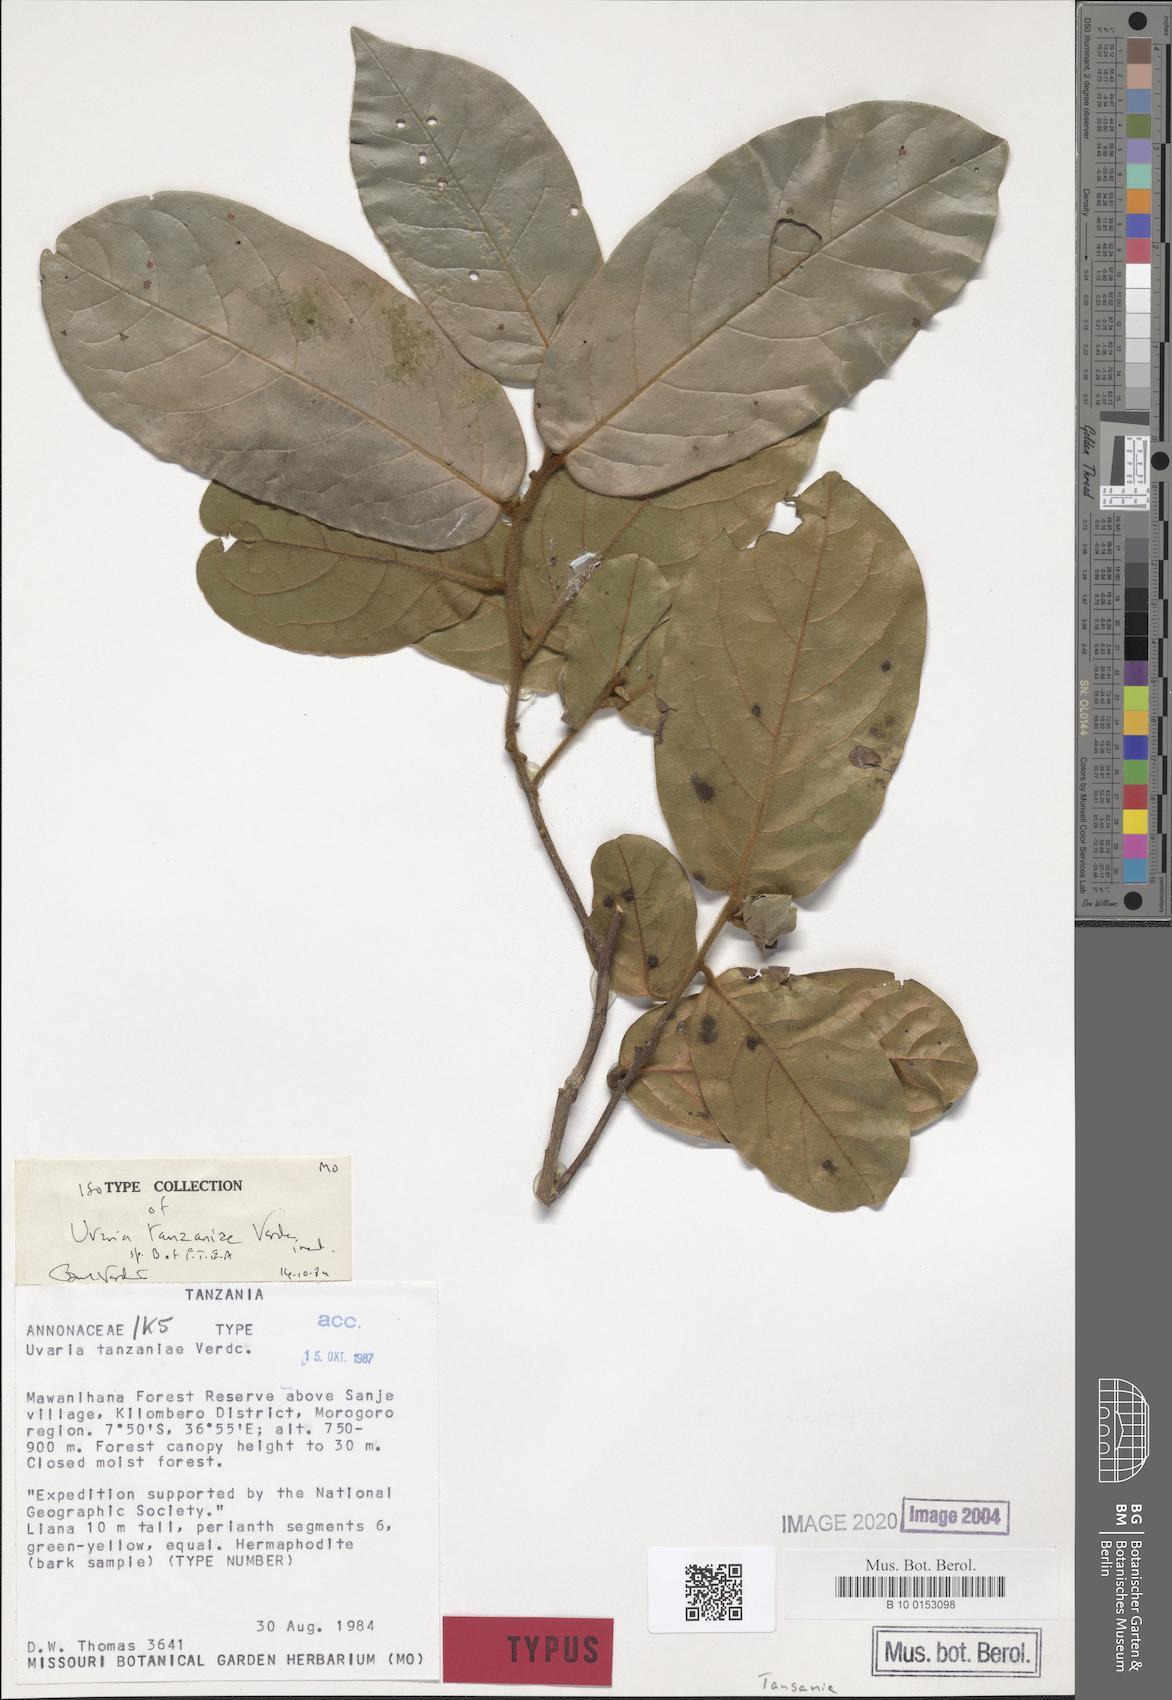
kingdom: Plantae
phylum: Tracheophyta
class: Magnoliopsida
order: Magnoliales
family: Annonaceae
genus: Uvaria
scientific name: Uvaria tanzaniae
